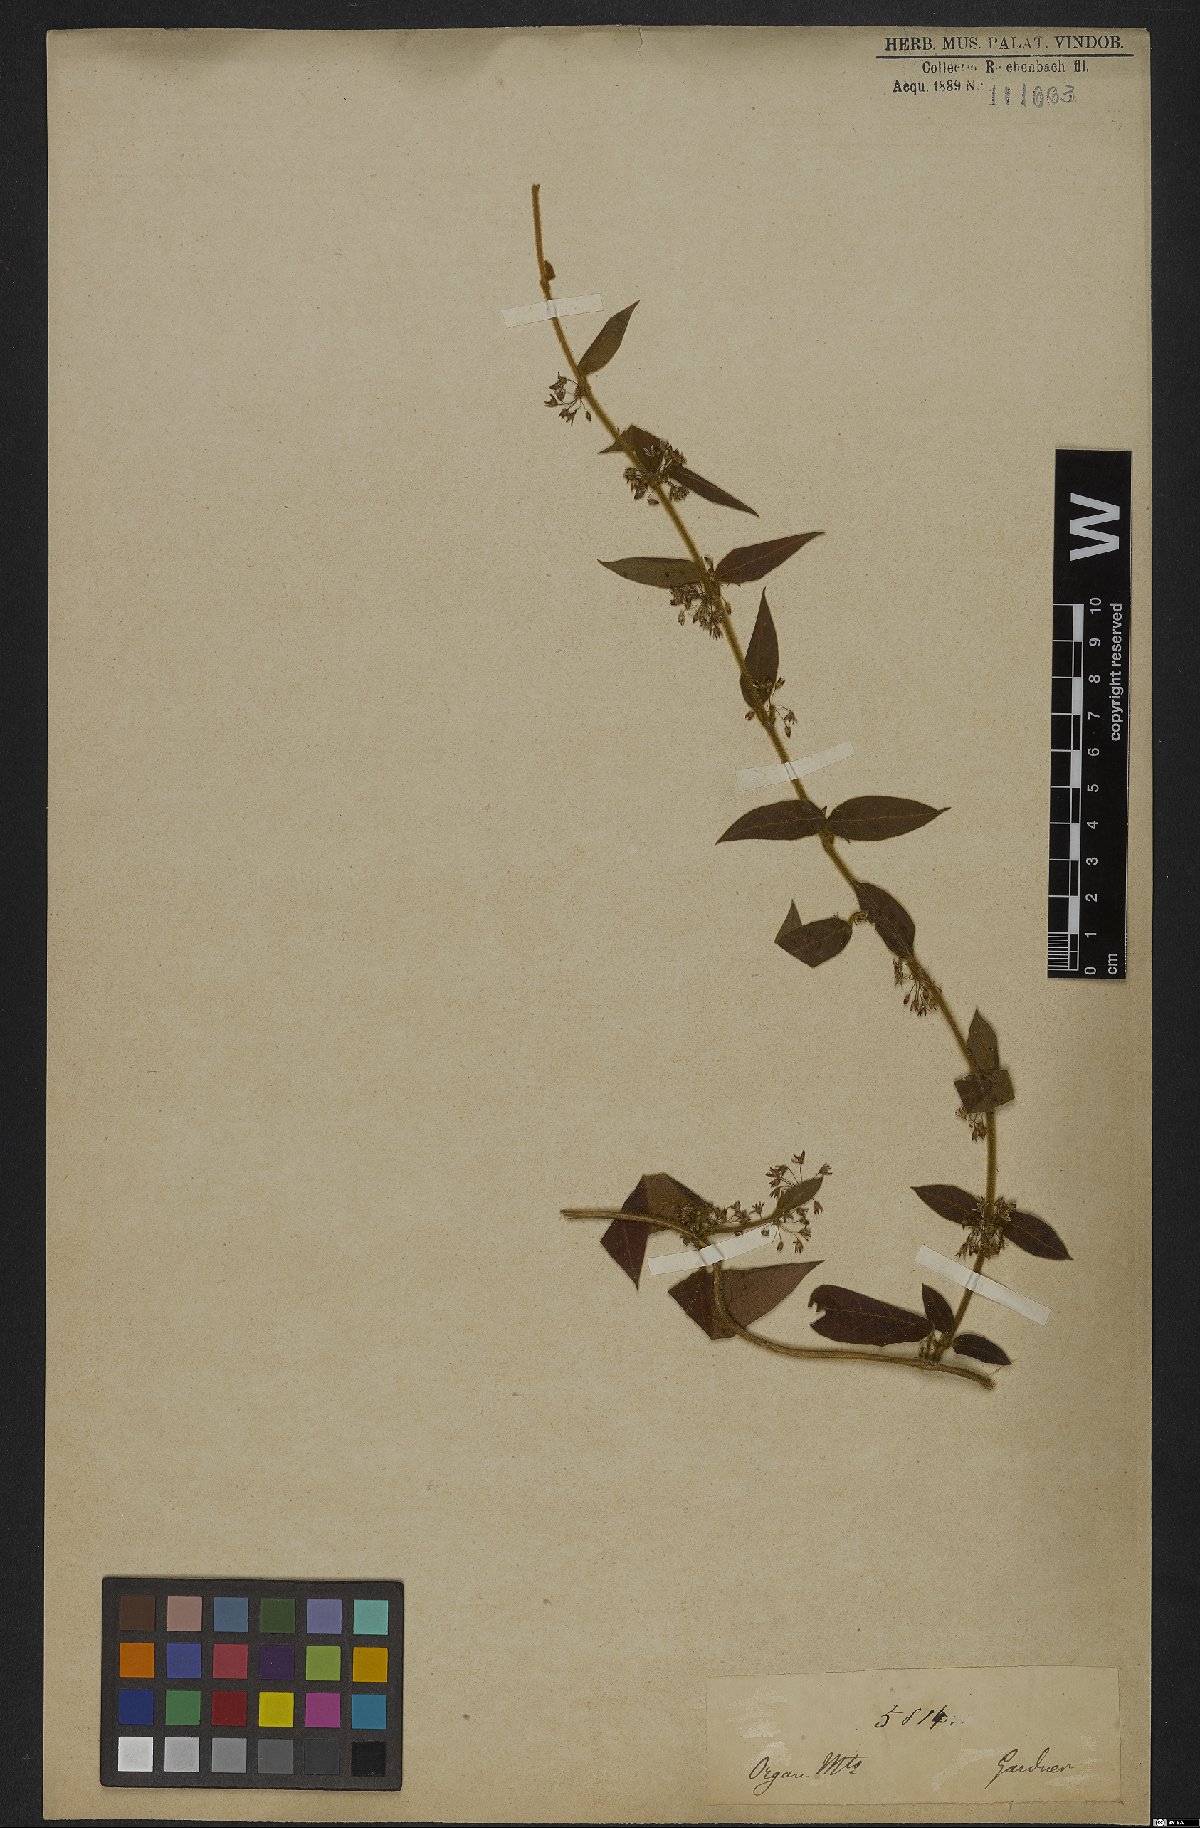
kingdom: Plantae
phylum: Tracheophyta
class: Magnoliopsida
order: Gentianales
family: Apocynaceae
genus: Ditassa
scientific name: Ditassa hispida
